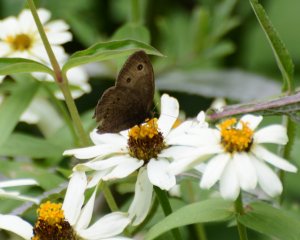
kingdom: Animalia
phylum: Arthropoda
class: Insecta
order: Lepidoptera
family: Nymphalidae
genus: Cercyonis
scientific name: Cercyonis pegala
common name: Common Wood-Nymph
